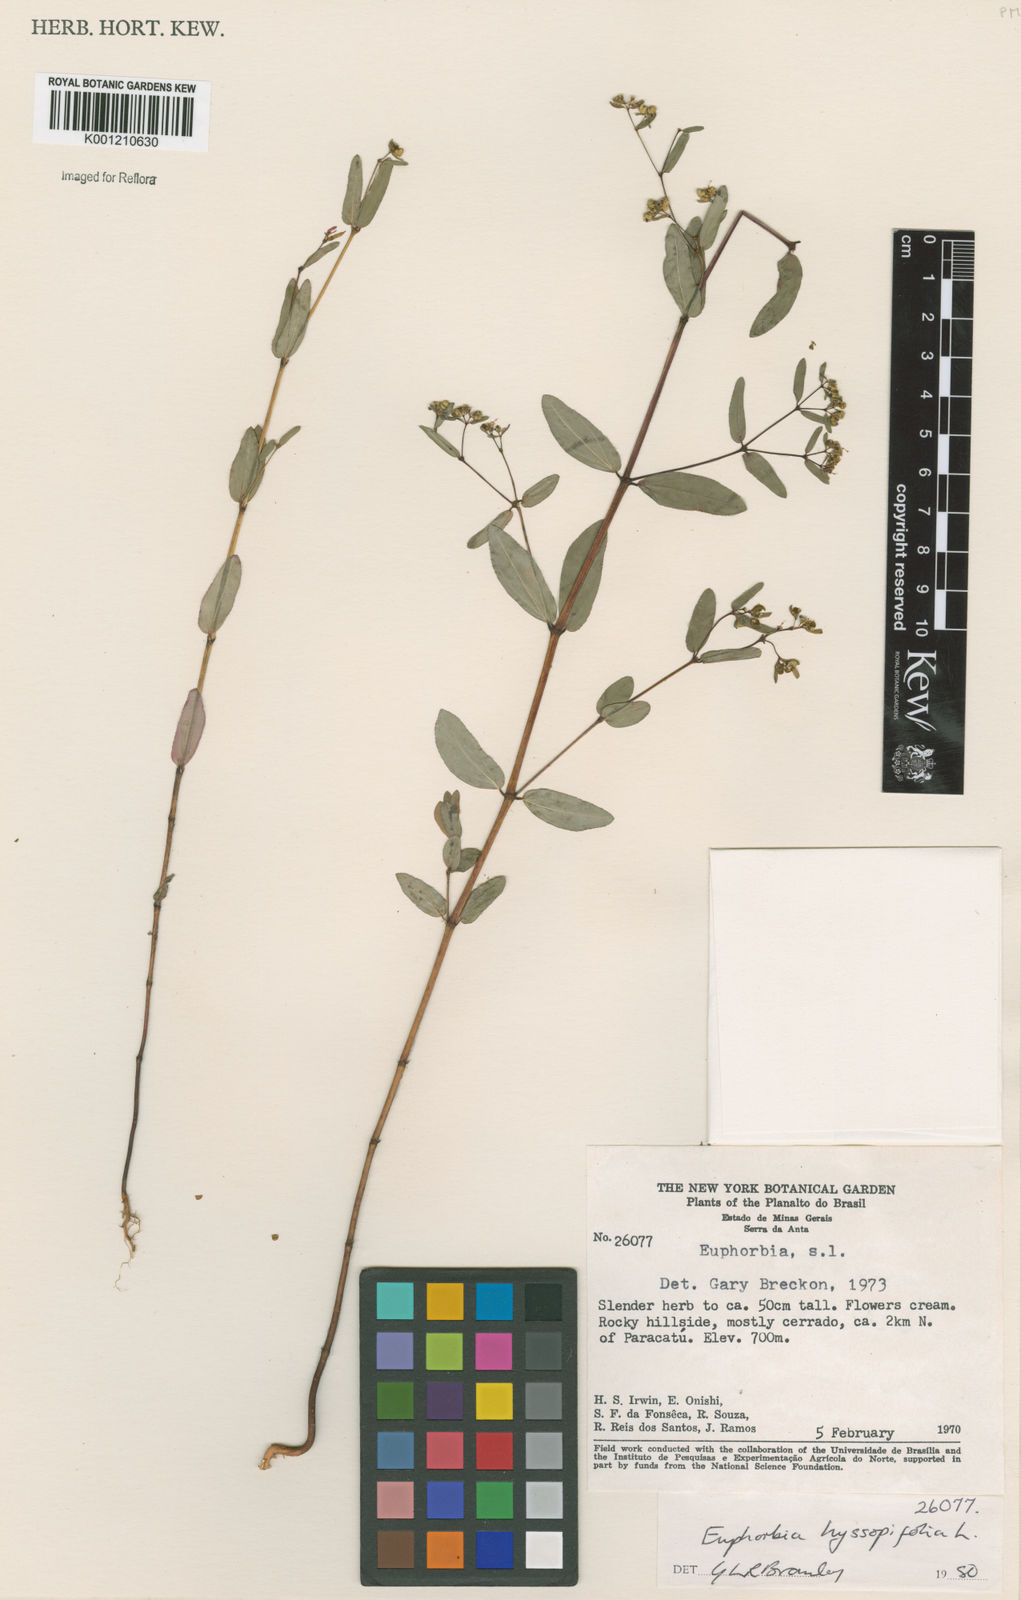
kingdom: Plantae
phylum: Tracheophyta
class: Magnoliopsida
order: Malpighiales
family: Euphorbiaceae
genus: Euphorbia
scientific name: Euphorbia hyssopifolia
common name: Hyssopleaf sandmat
